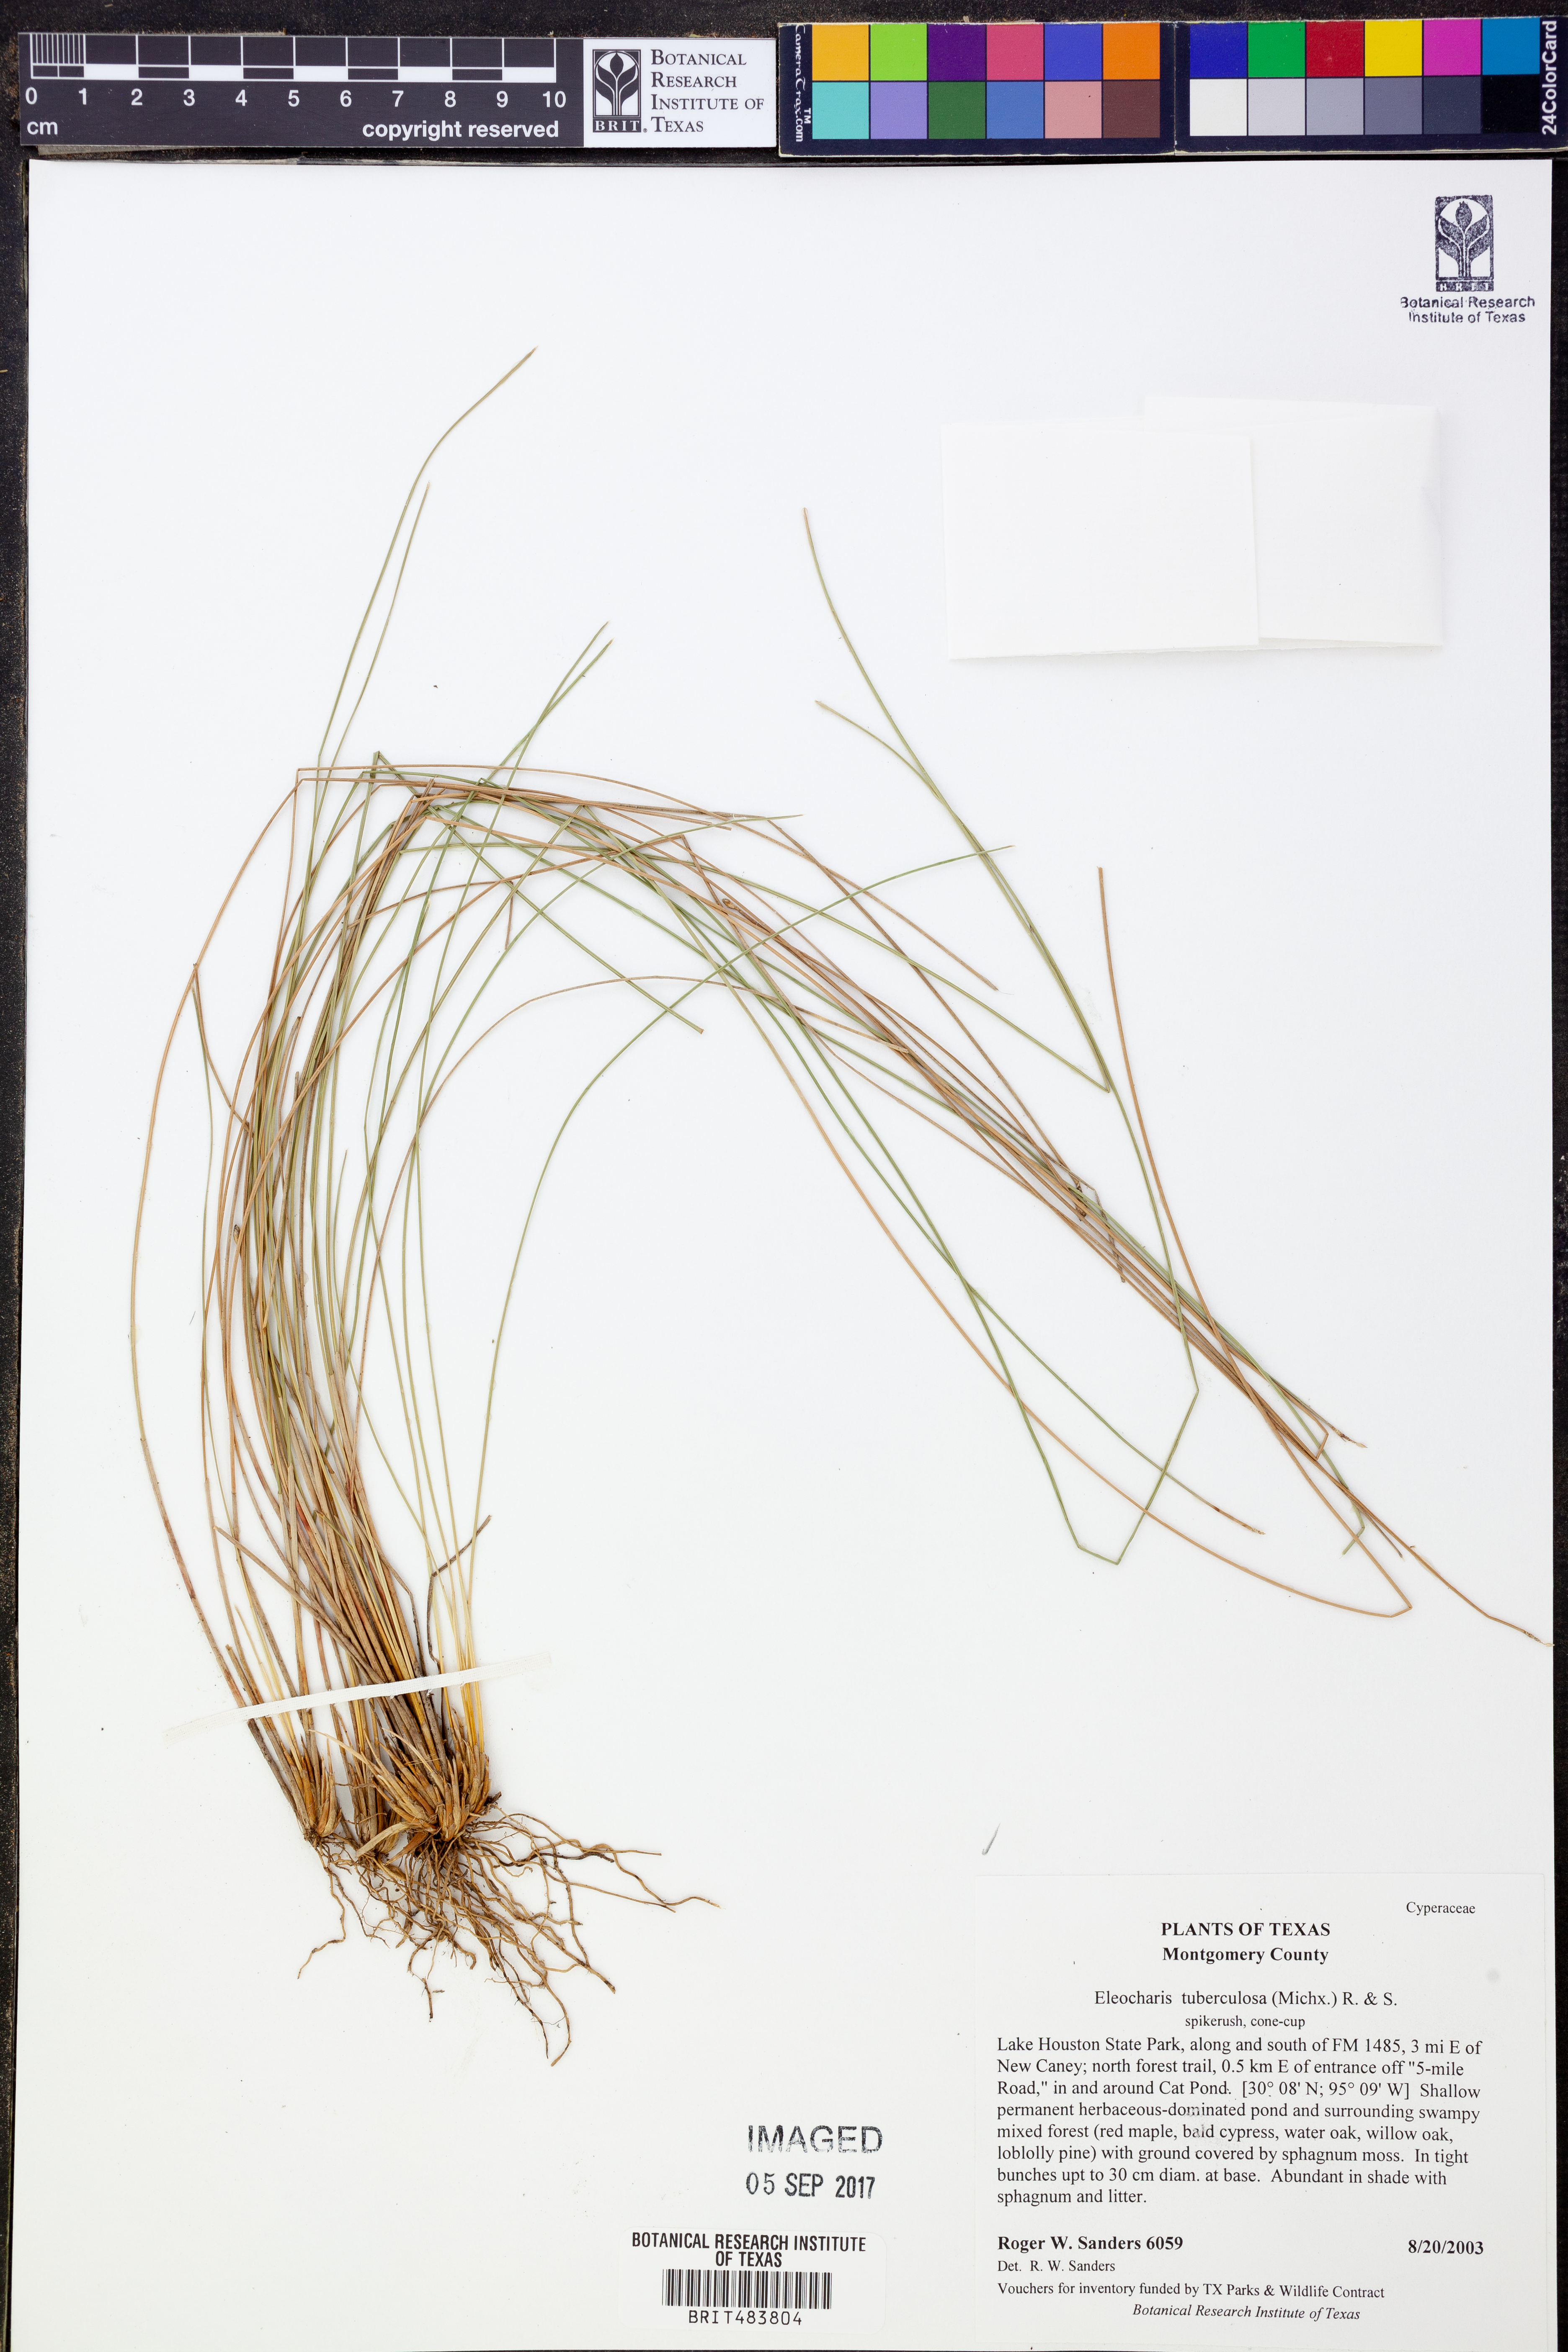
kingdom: Plantae
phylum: Tracheophyta
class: Liliopsida
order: Poales
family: Cyperaceae
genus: Eleocharis
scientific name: Eleocharis tuberculosa
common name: Cone-cup spikerush
